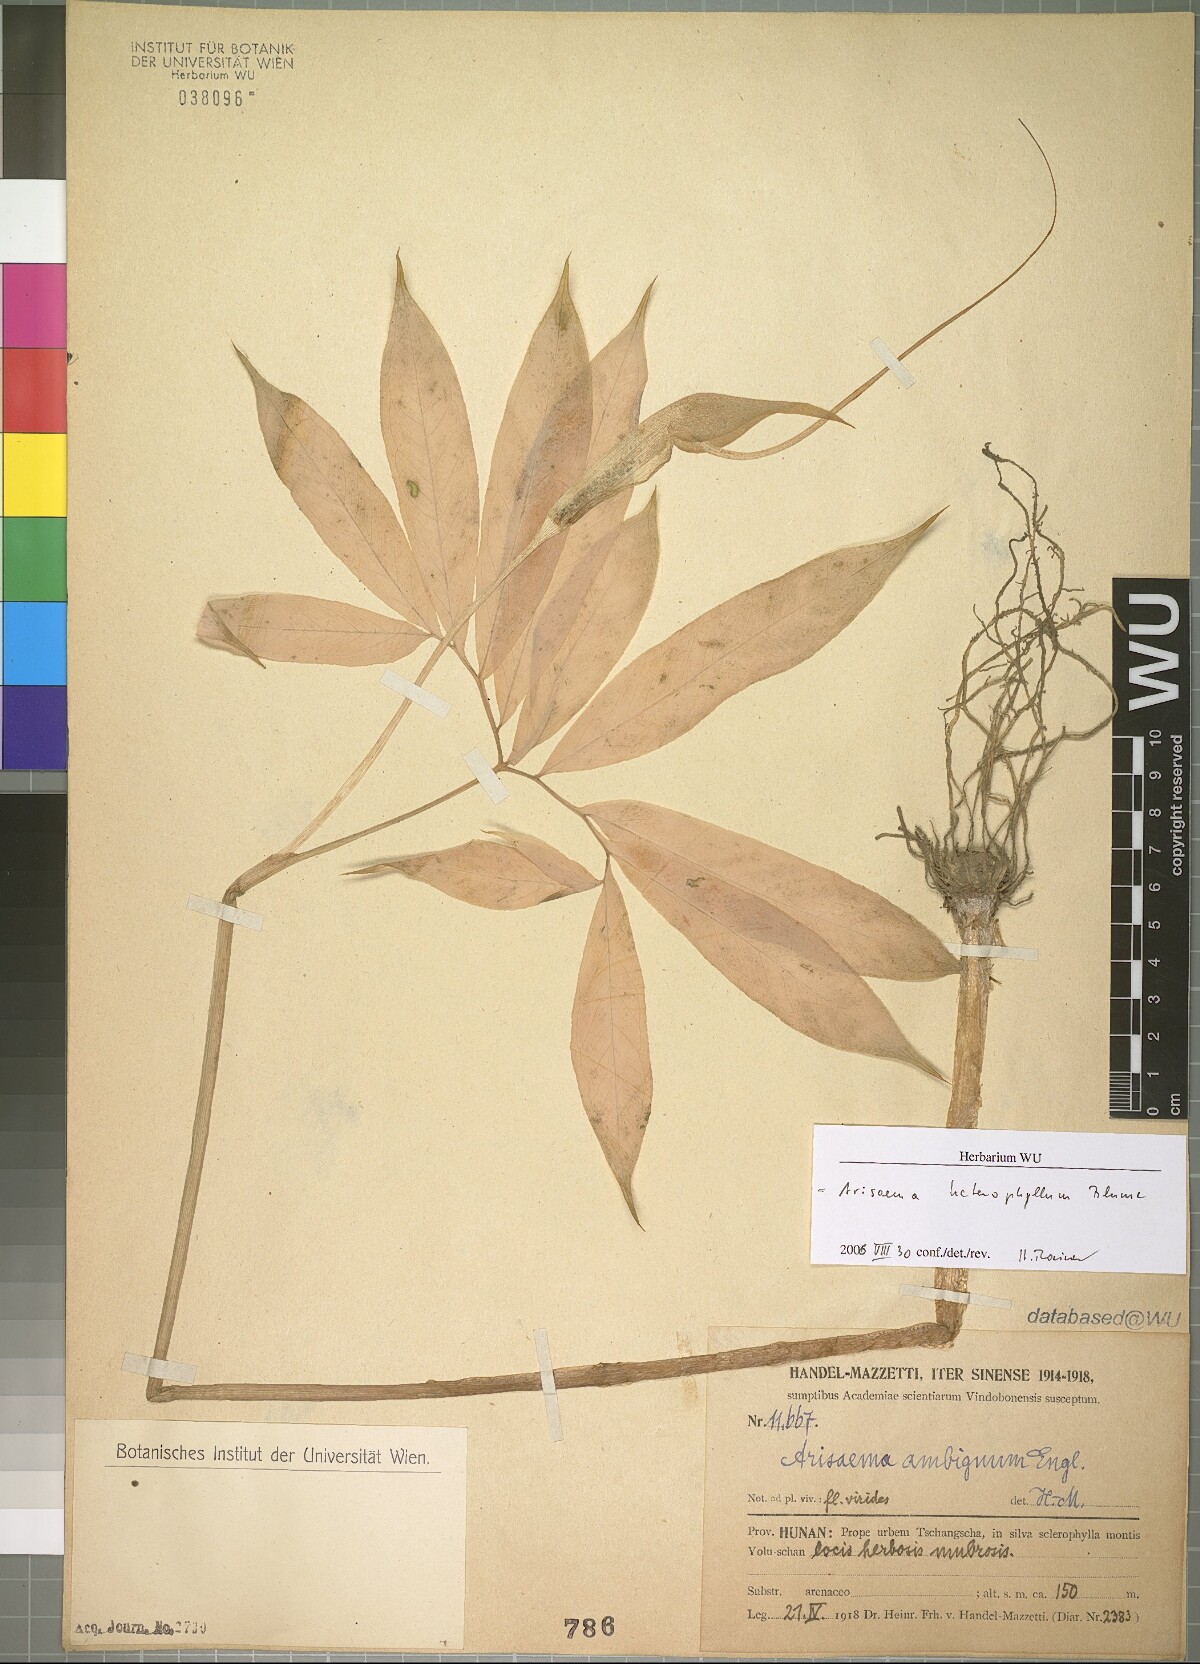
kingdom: Plantae
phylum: Tracheophyta
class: Liliopsida
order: Alismatales
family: Araceae
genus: Arisaema
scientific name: Arisaema heterophyllum
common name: Dancing crane cobra lily
